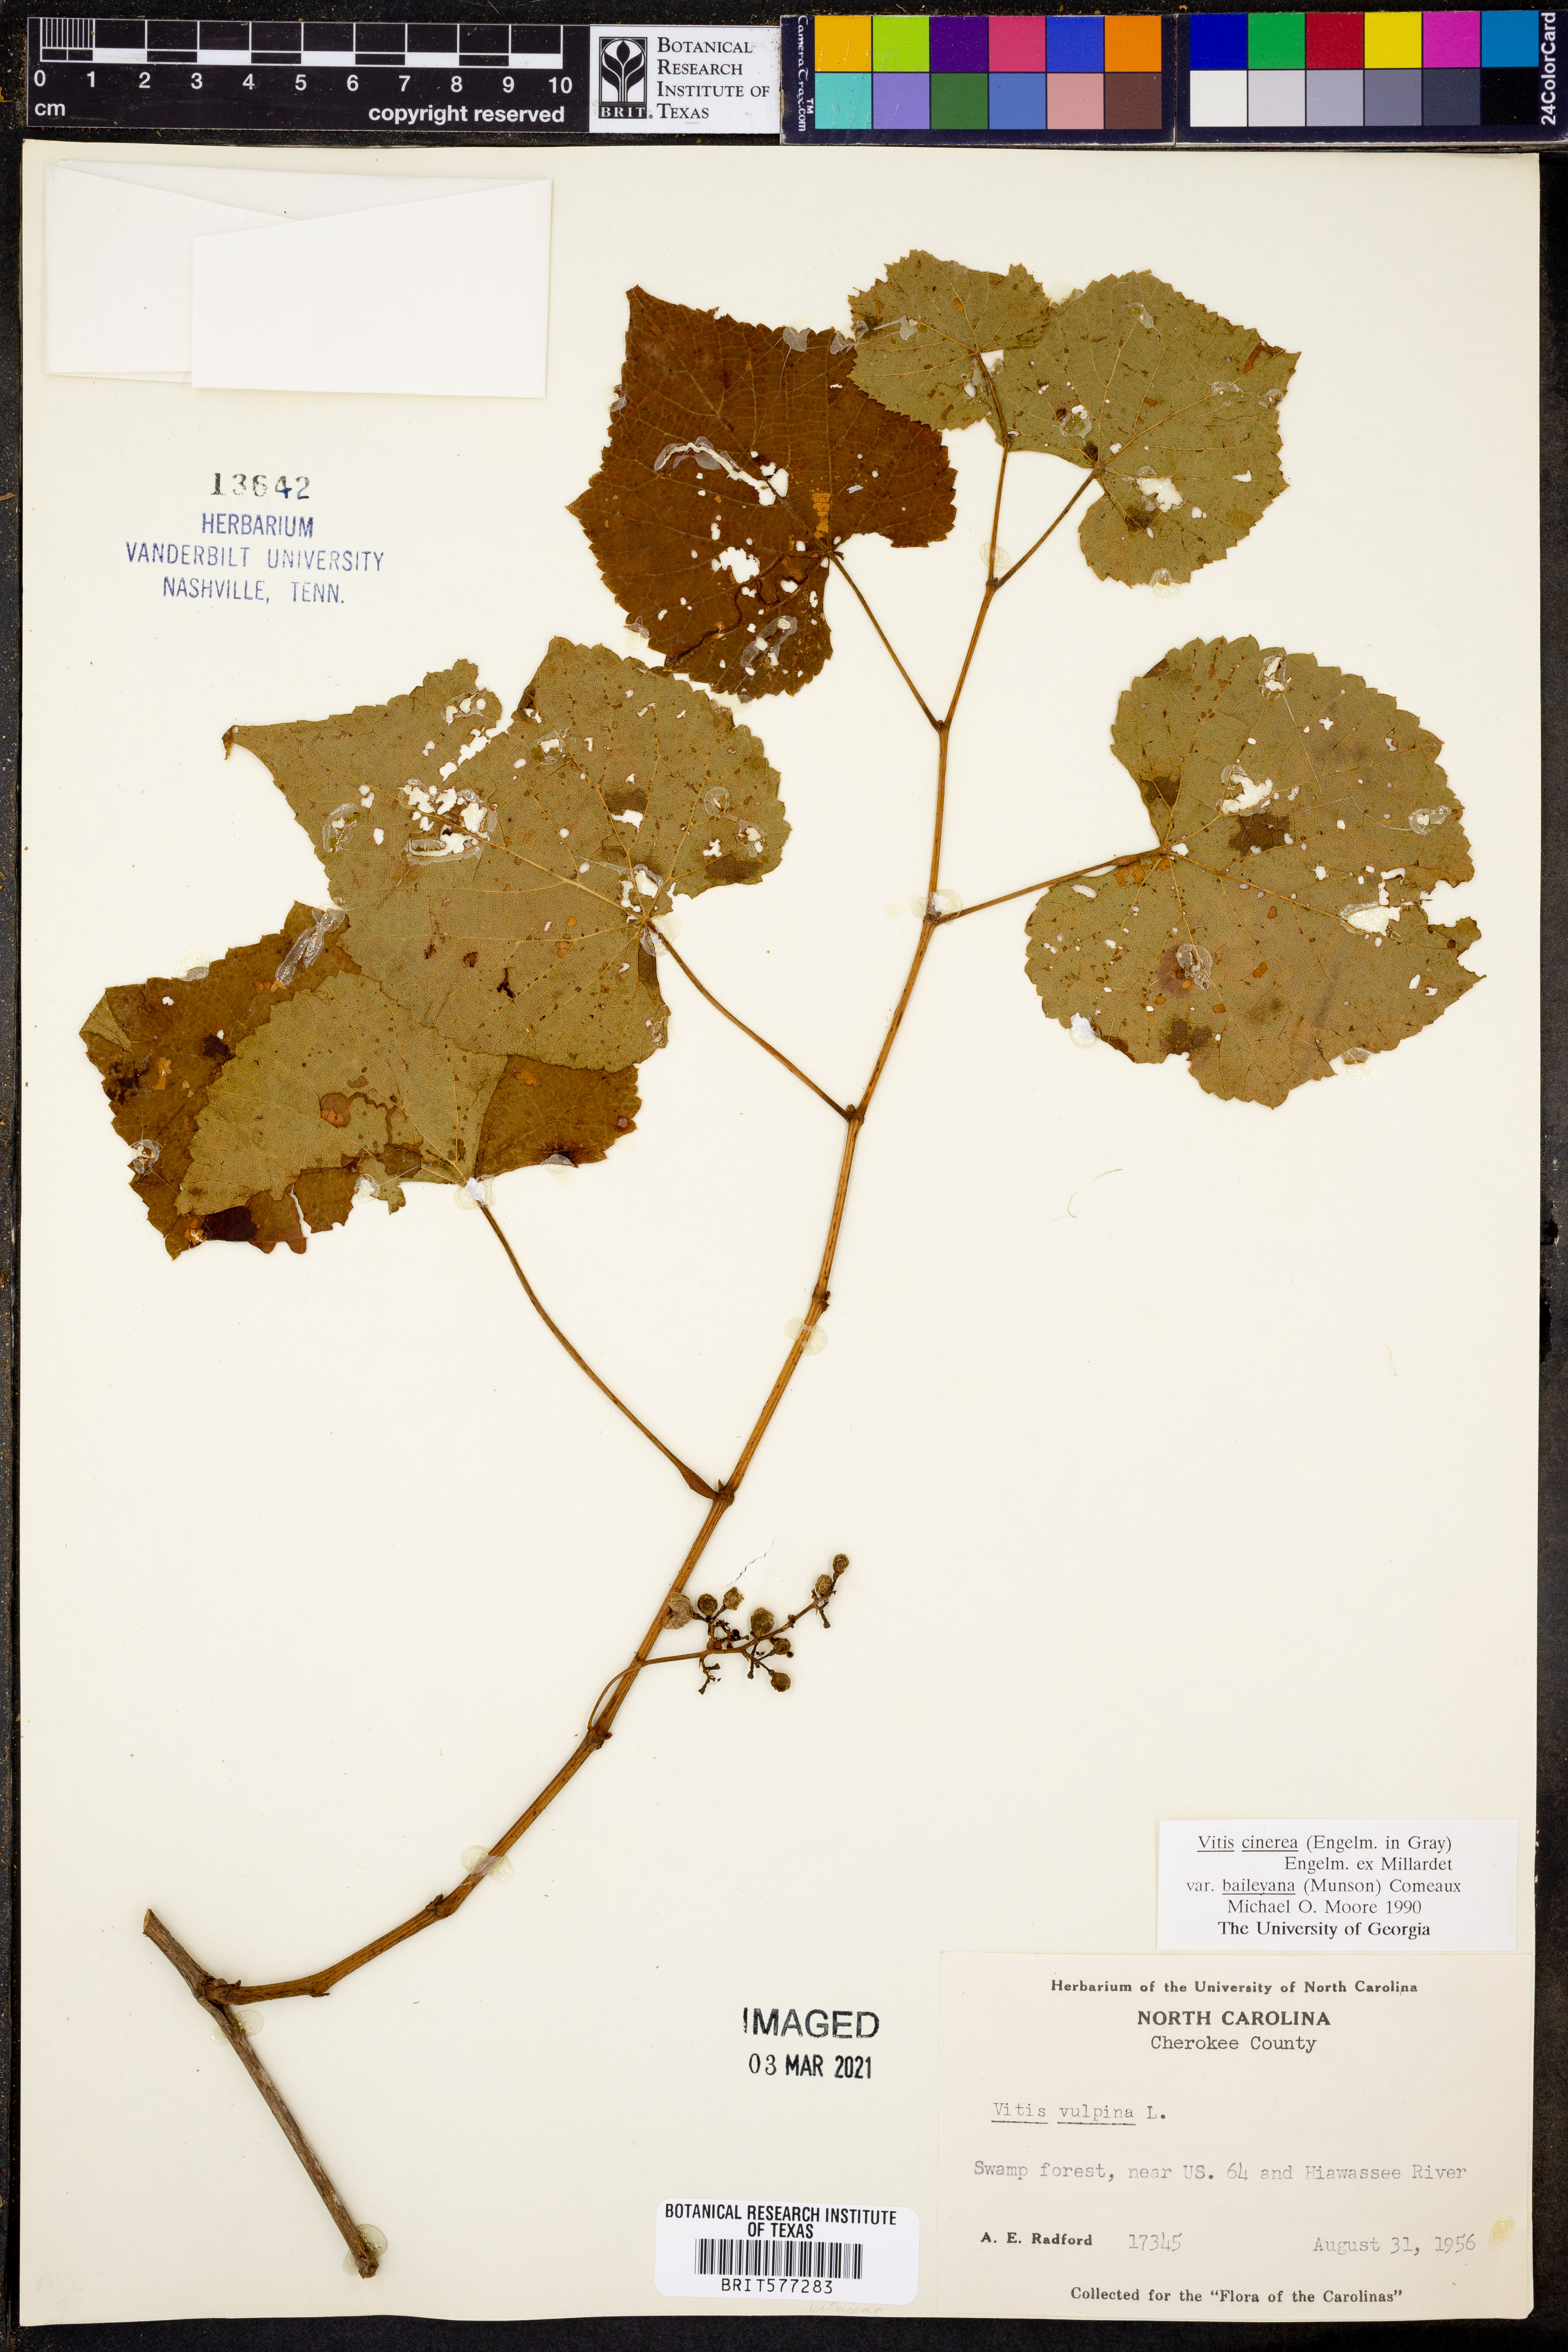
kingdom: Plantae
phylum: Tracheophyta
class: Magnoliopsida
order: Vitales
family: Vitaceae
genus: Vitis
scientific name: Vitis cinerea
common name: Ashy grape
